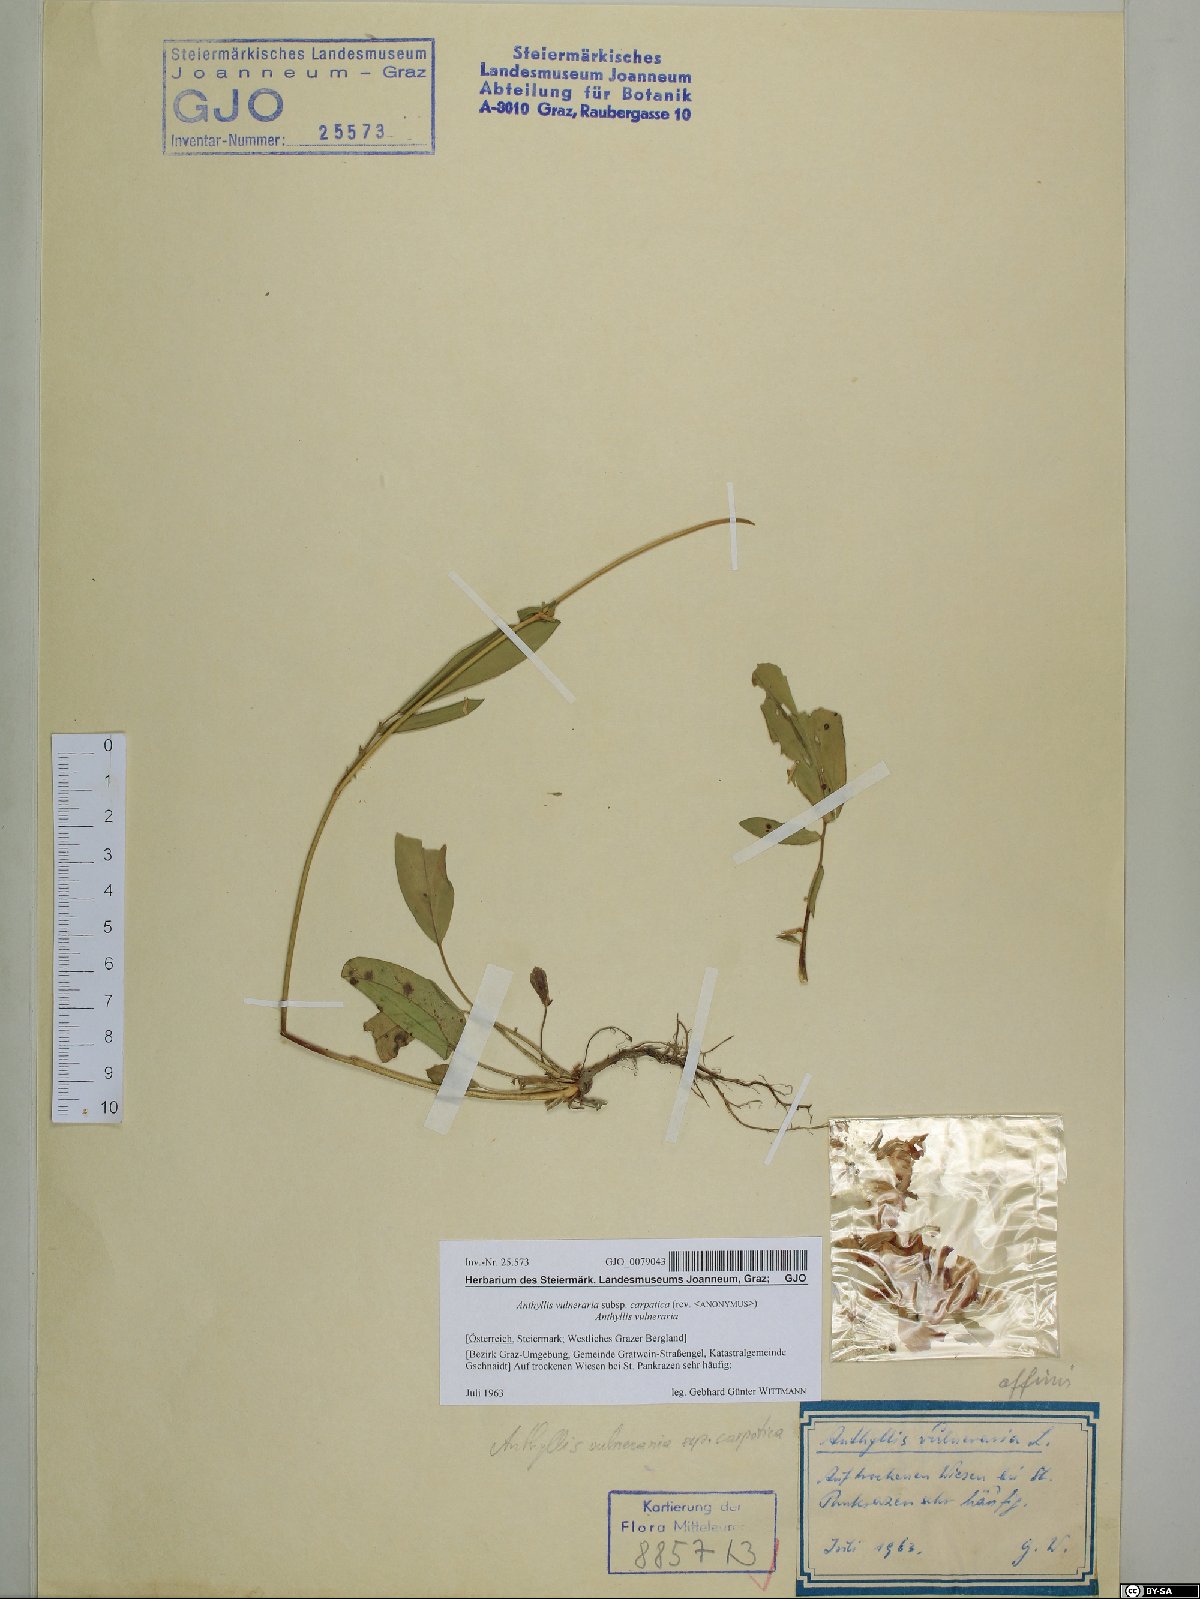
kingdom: Plantae
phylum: Tracheophyta
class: Magnoliopsida
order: Fabales
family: Fabaceae
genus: Anthyllis
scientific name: Anthyllis vulneraria
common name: Kidney vetch
